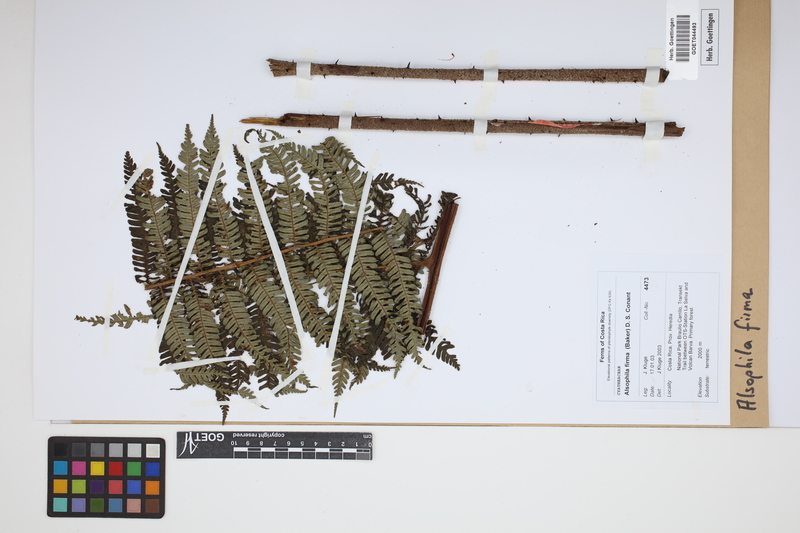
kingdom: Plantae
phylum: Tracheophyta
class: Polypodiopsida
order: Cyatheales
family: Cyatheaceae
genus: Alsophila
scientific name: Alsophila firma
